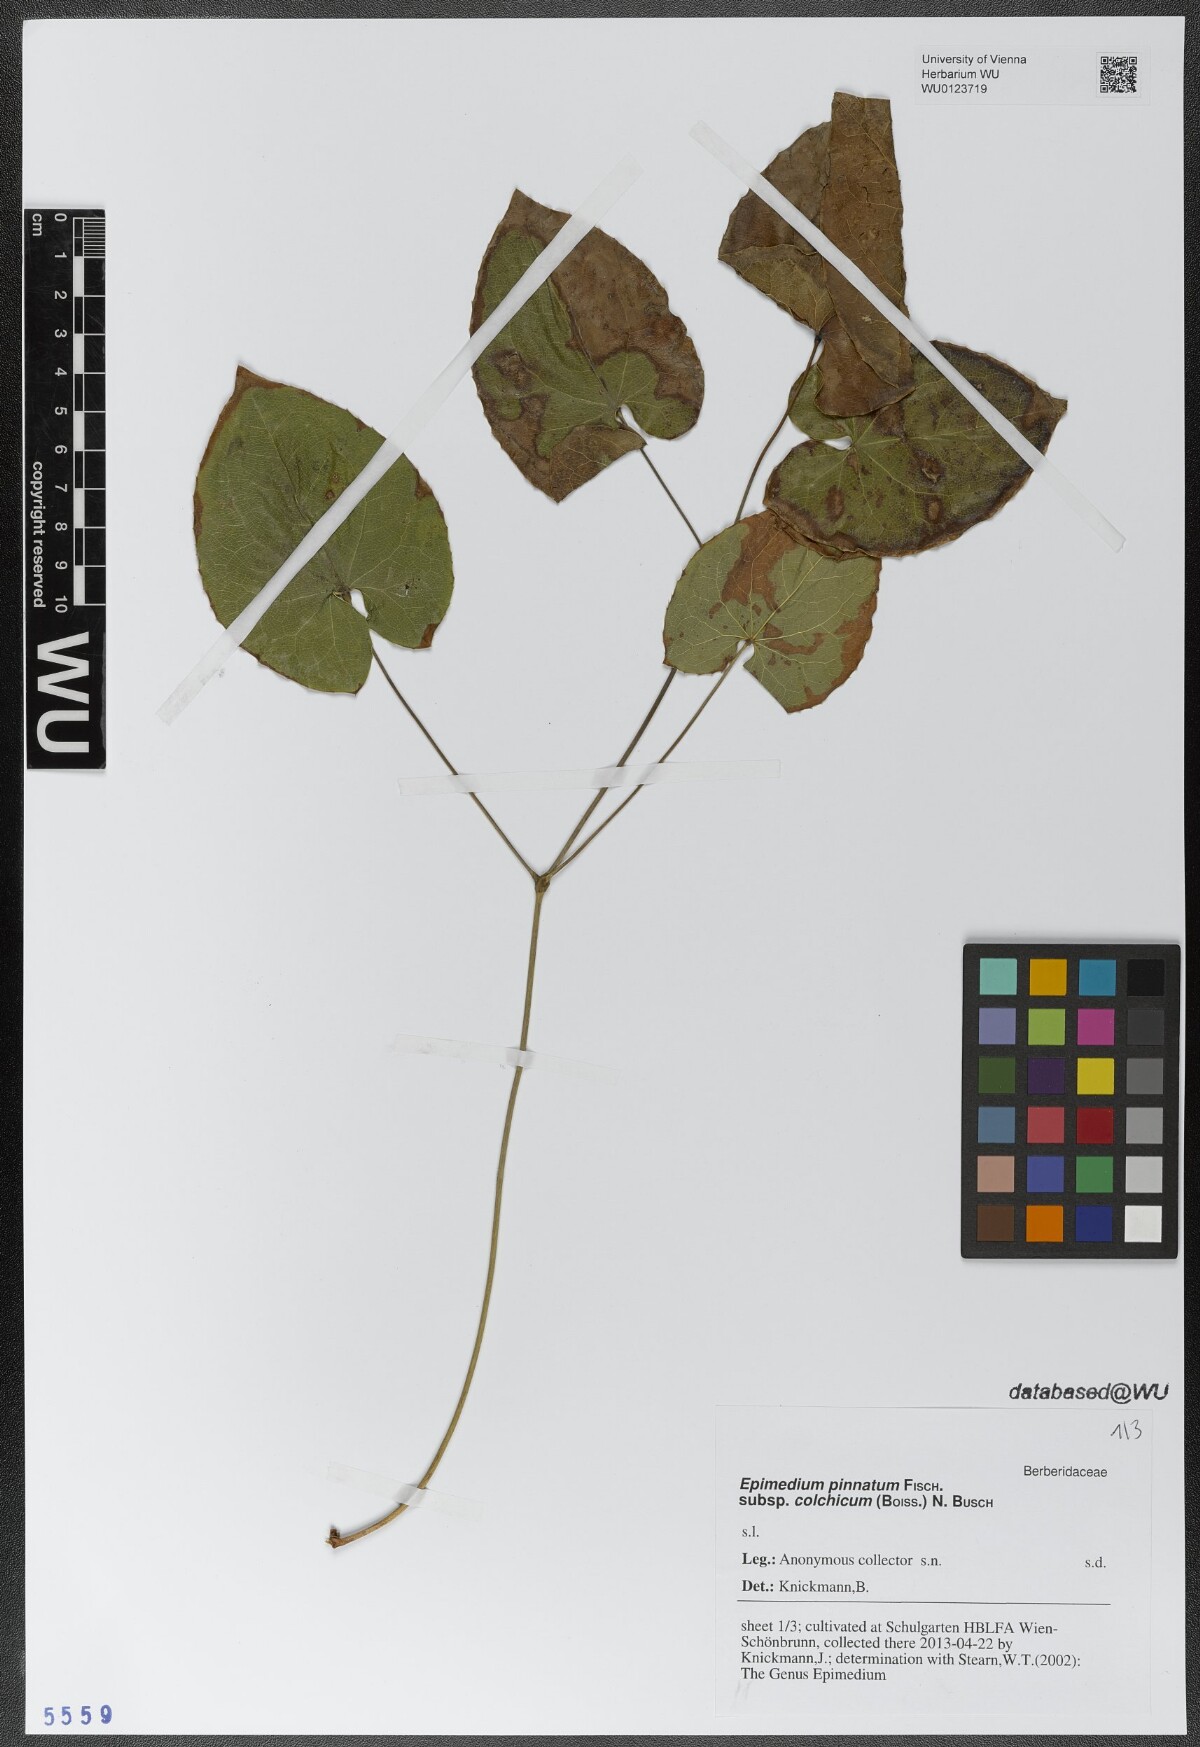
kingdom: Plantae
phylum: Tracheophyta
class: Magnoliopsida
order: Ranunculales
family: Berberidaceae
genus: Epimedium
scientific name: Epimedium pinnatum
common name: Caucasian barrenwort
